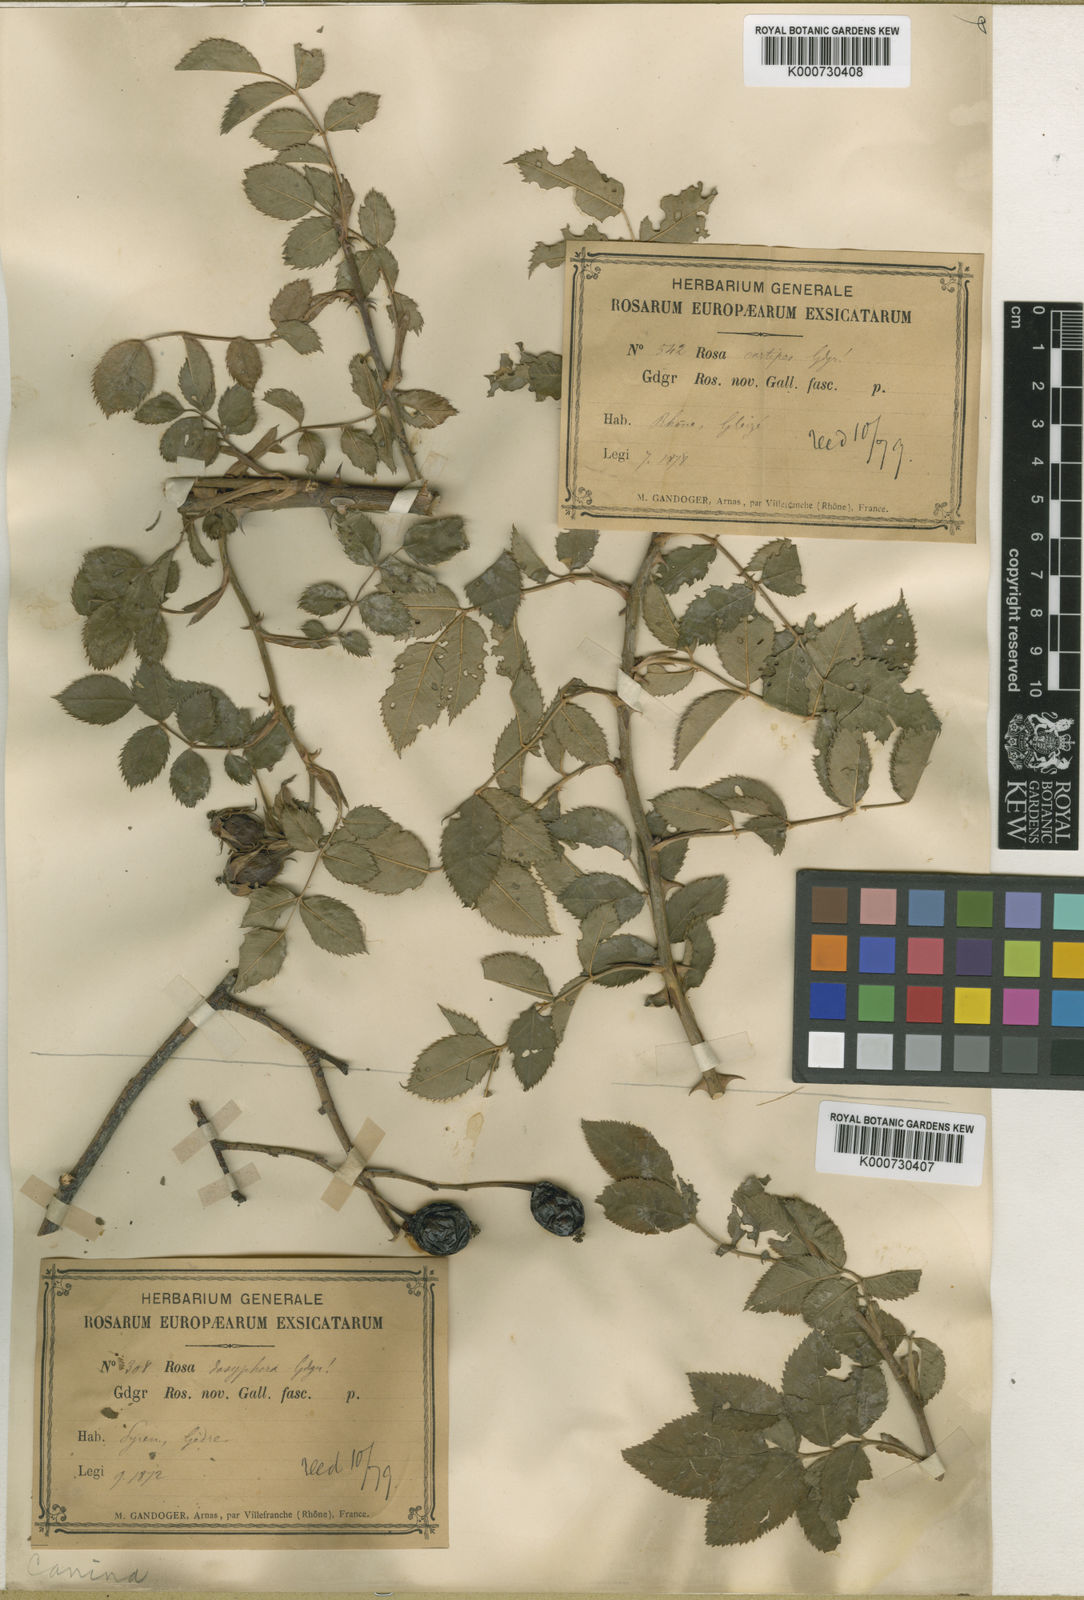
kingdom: Plantae
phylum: Tracheophyta
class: Magnoliopsida
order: Rosales
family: Rosaceae
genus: Rosa
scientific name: Rosa canina
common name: Dog rose
